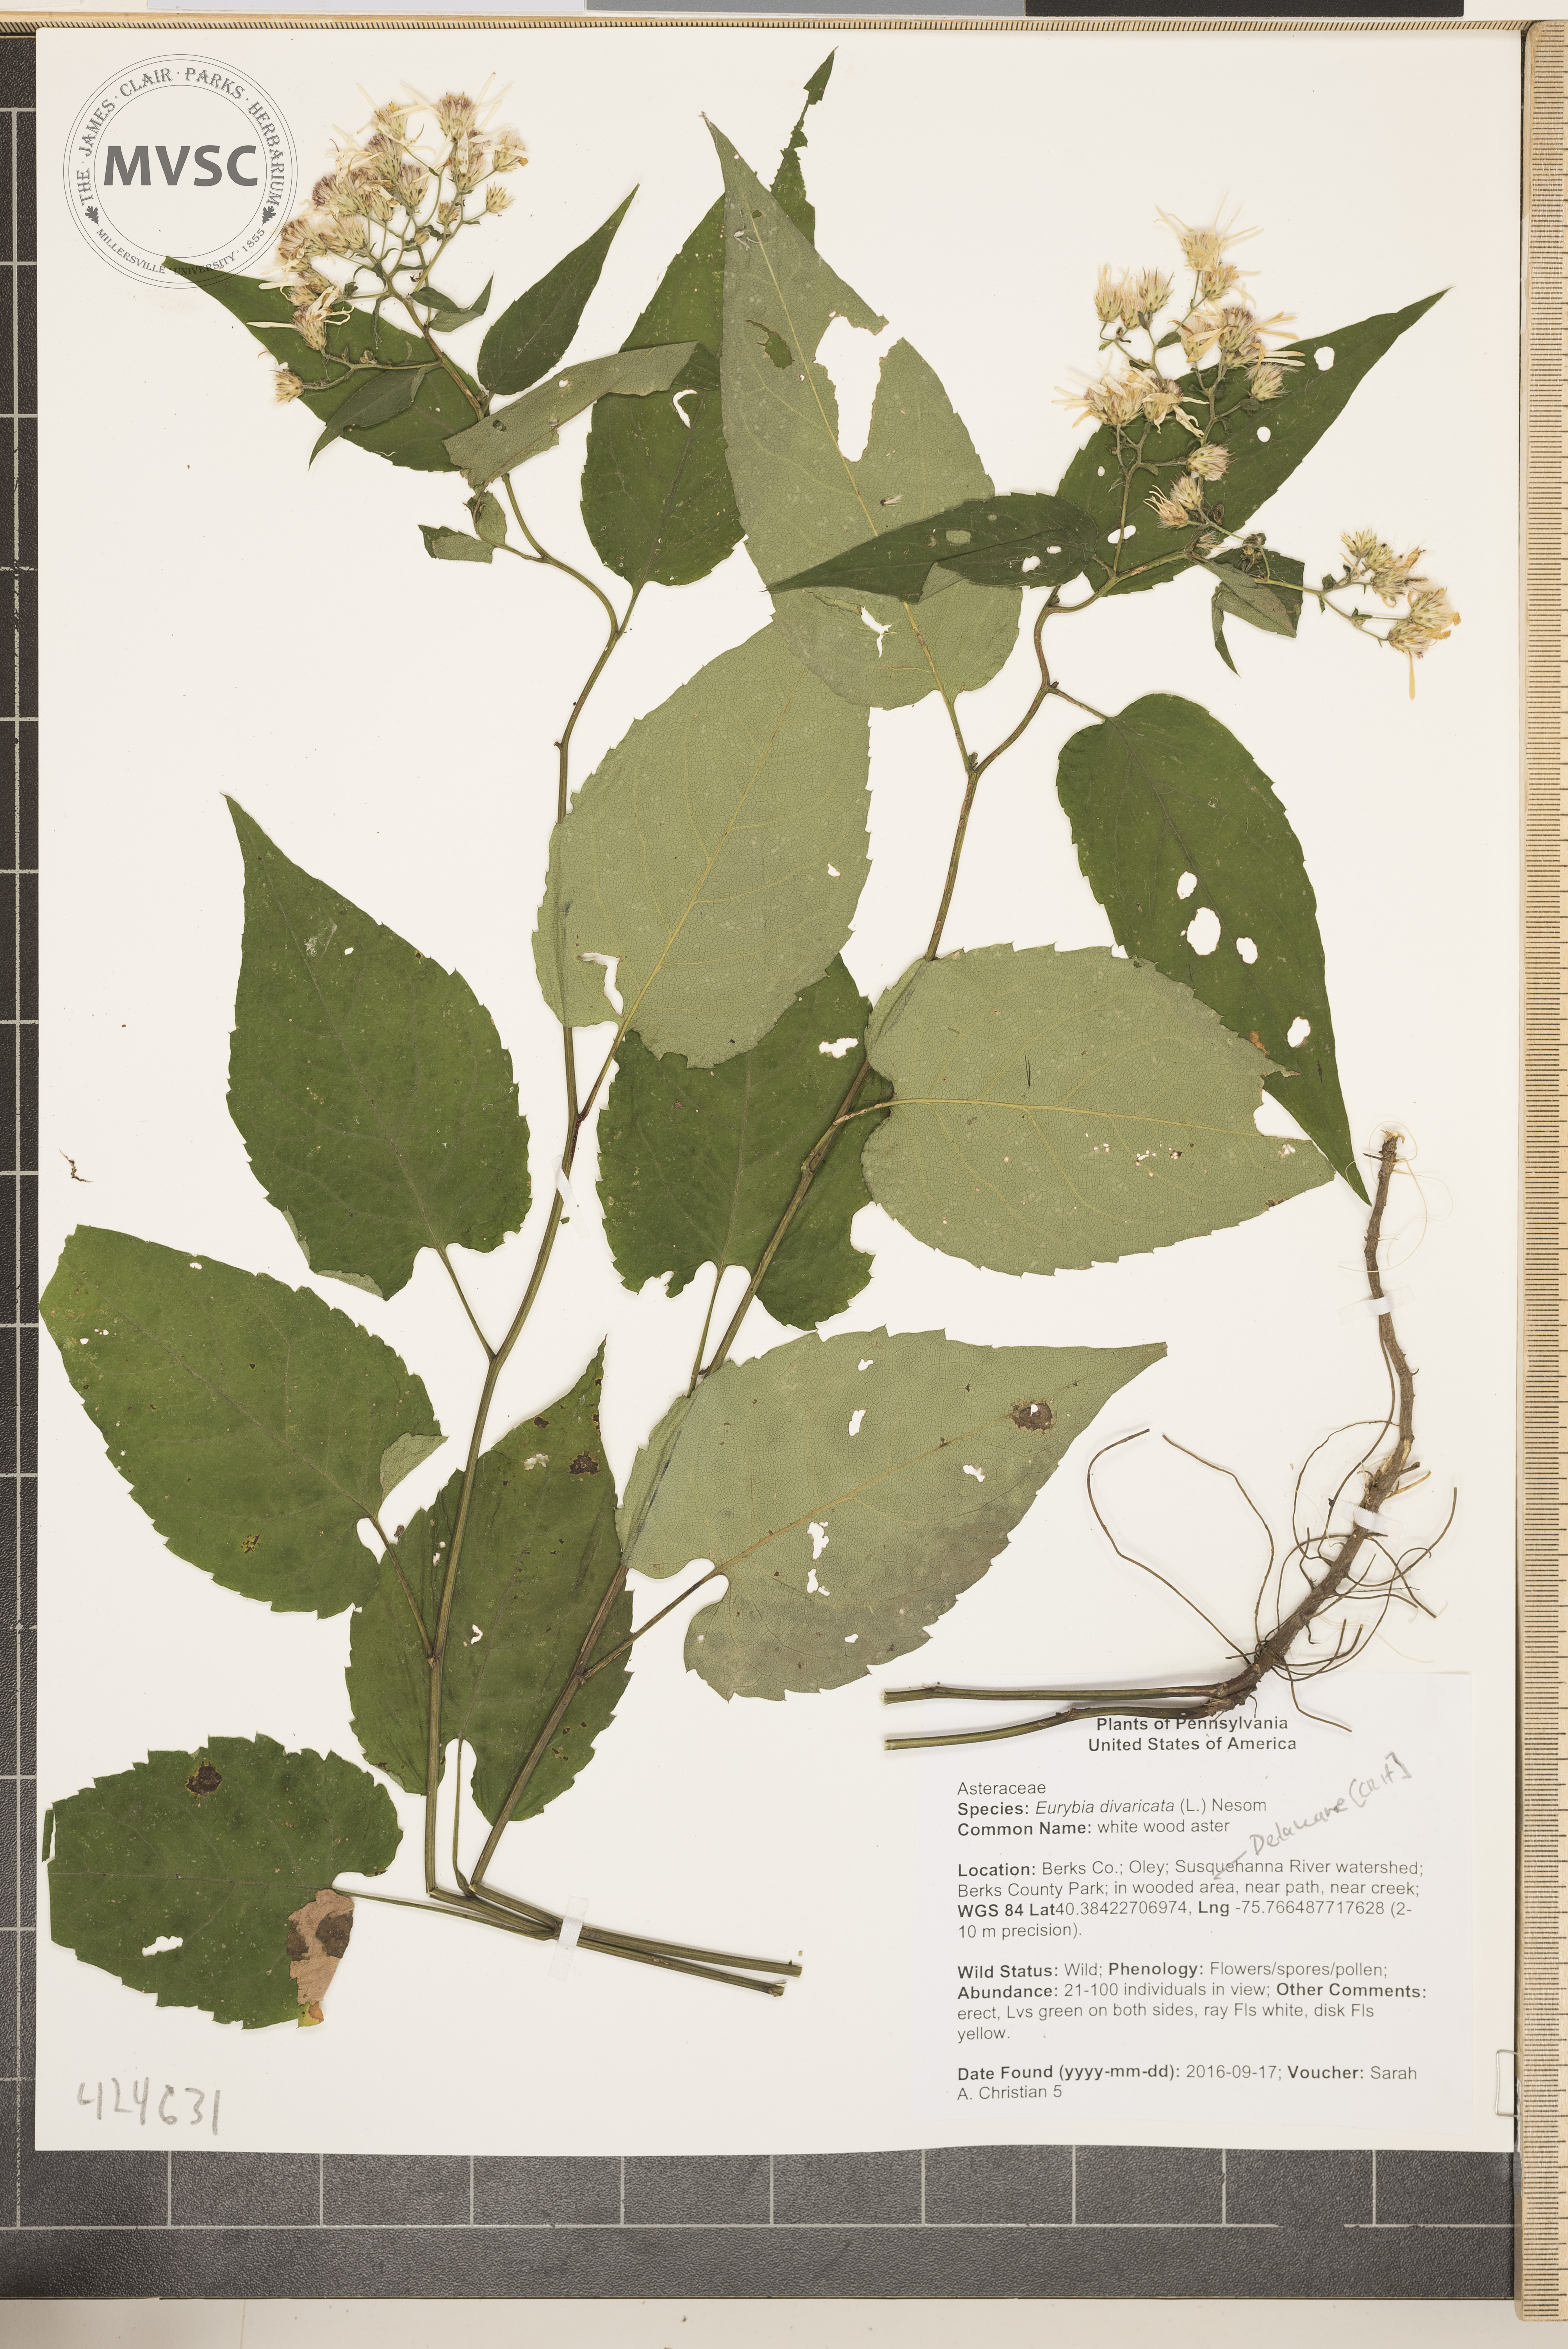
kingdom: Plantae
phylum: Tracheophyta
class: Magnoliopsida
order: Asterales
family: Asteraceae
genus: Eurybia
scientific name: Eurybia divaricata
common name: white wood aster
